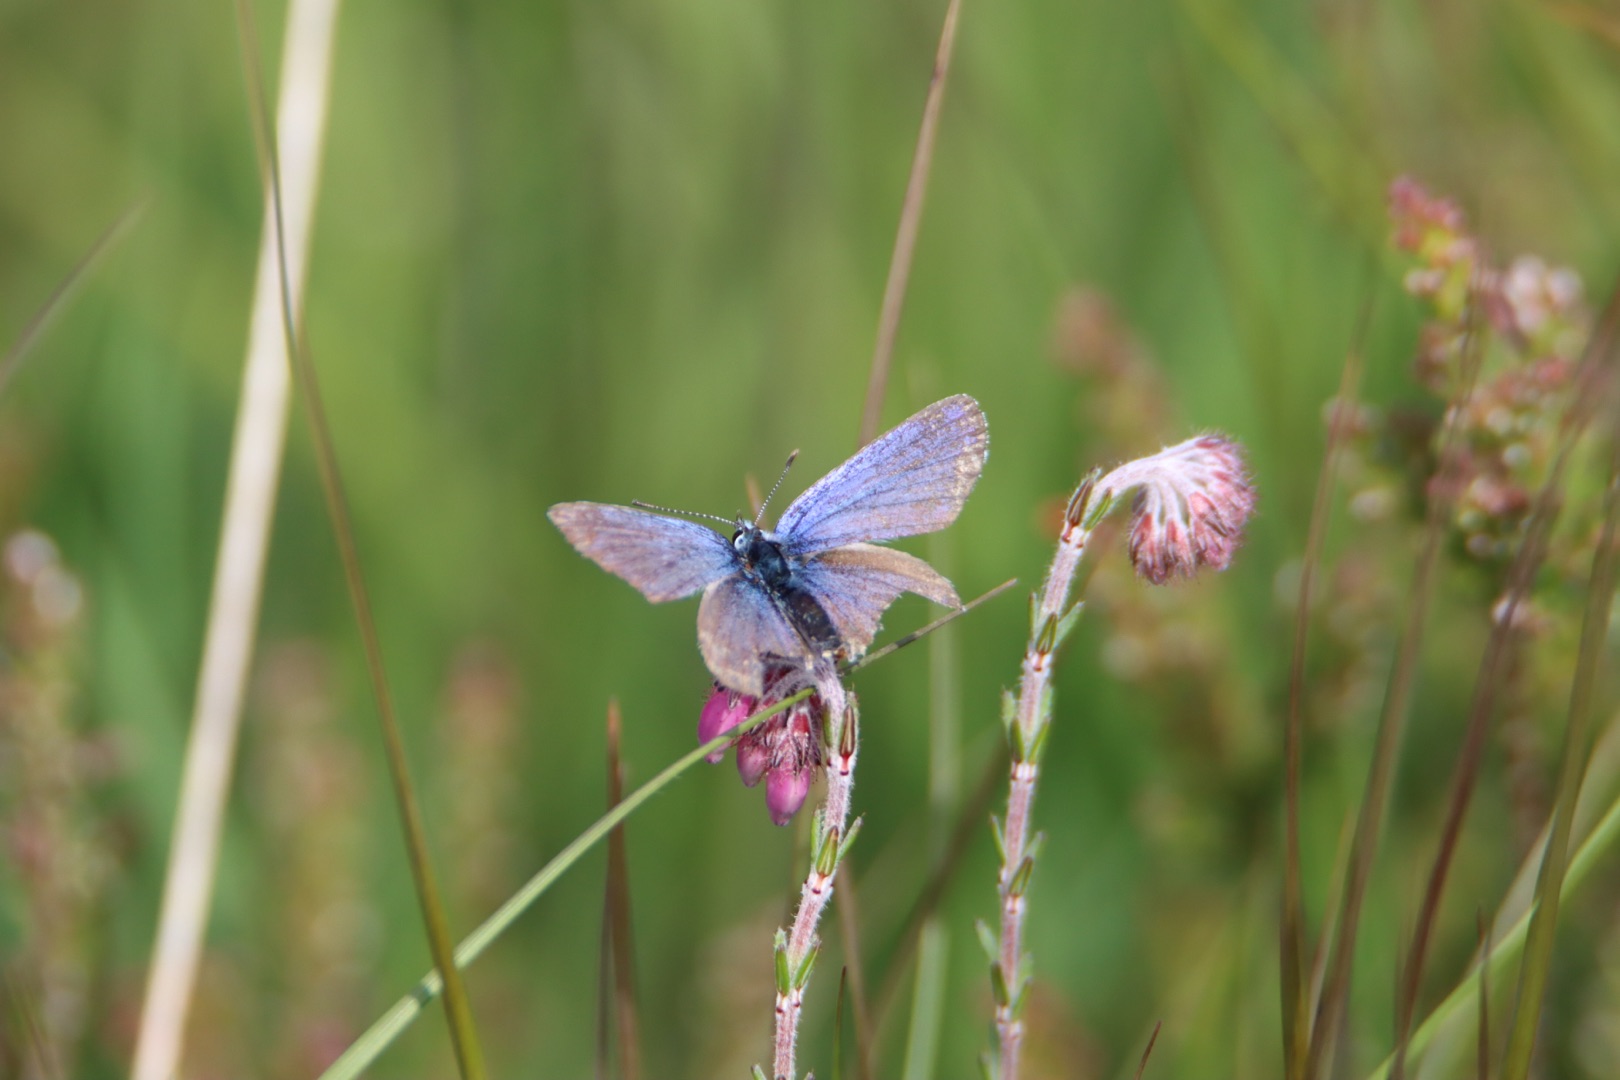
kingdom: Animalia
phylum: Arthropoda
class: Insecta
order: Lepidoptera
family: Lycaenidae
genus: Polyommatus
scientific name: Polyommatus icarus
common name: Almindelig blåfugl
